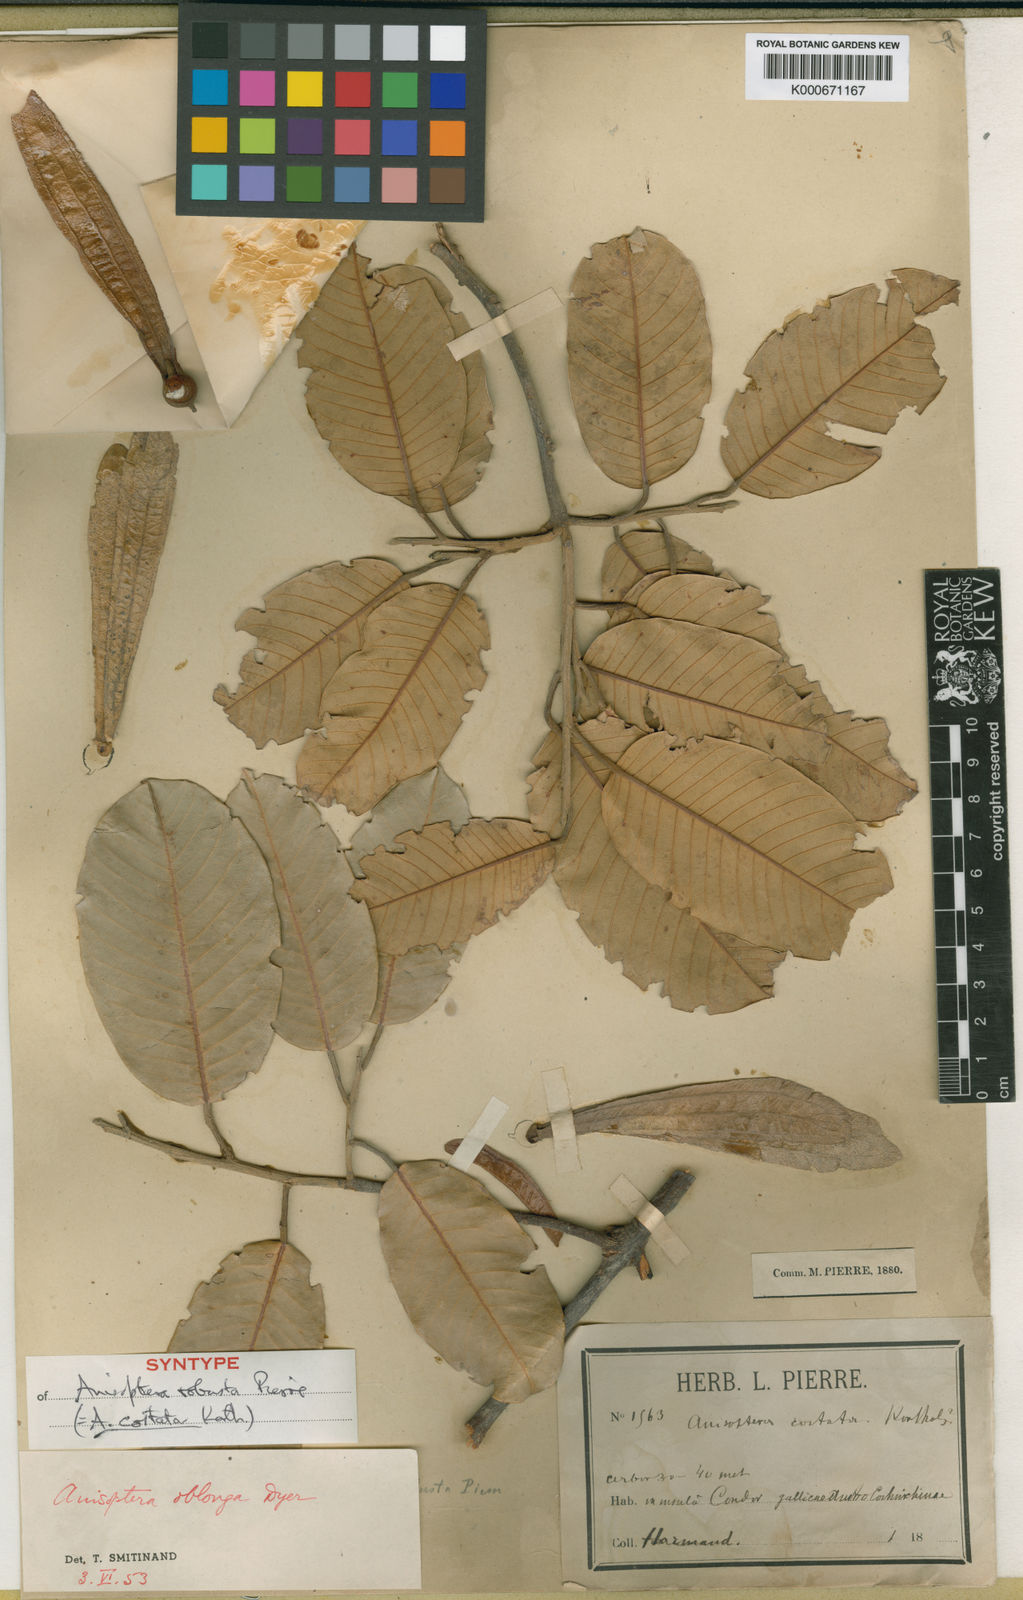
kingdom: Plantae
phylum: Tracheophyta
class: Magnoliopsida
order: Malvales
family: Dipterocarpaceae
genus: Anisoptera
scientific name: Anisoptera costata
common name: Mersawa
